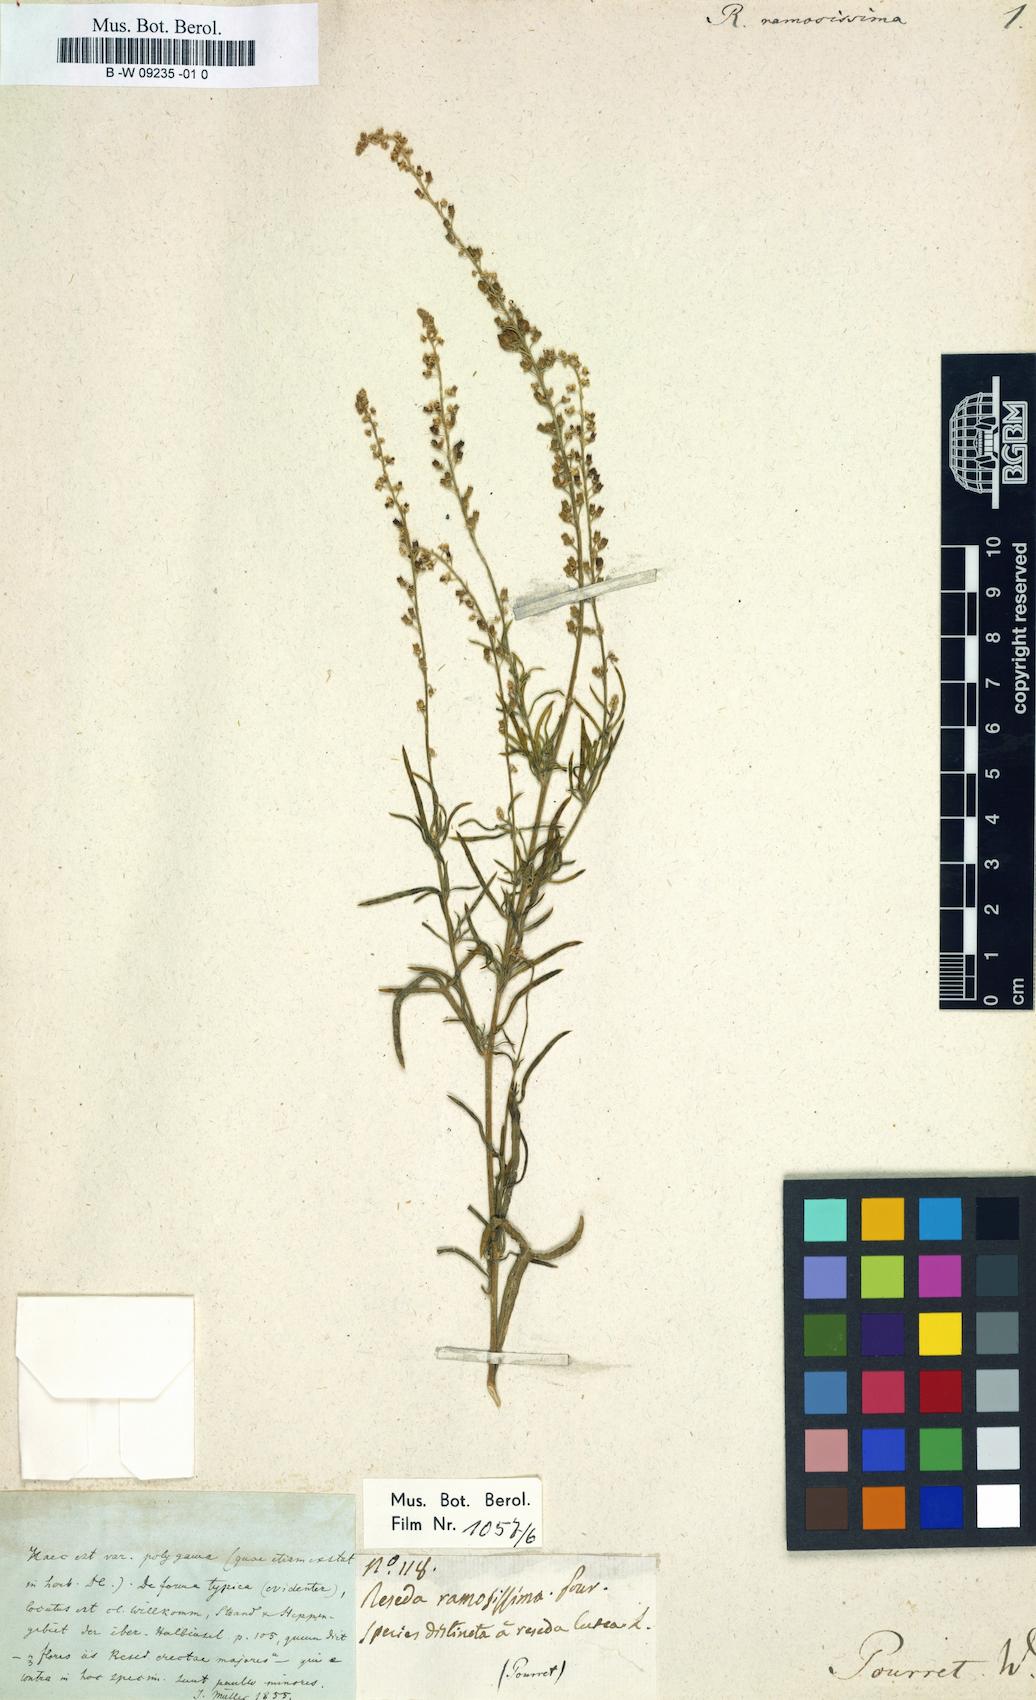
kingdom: Plantae
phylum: Tracheophyta
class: Magnoliopsida
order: Brassicales
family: Resedaceae
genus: Reseda
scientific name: Reseda
